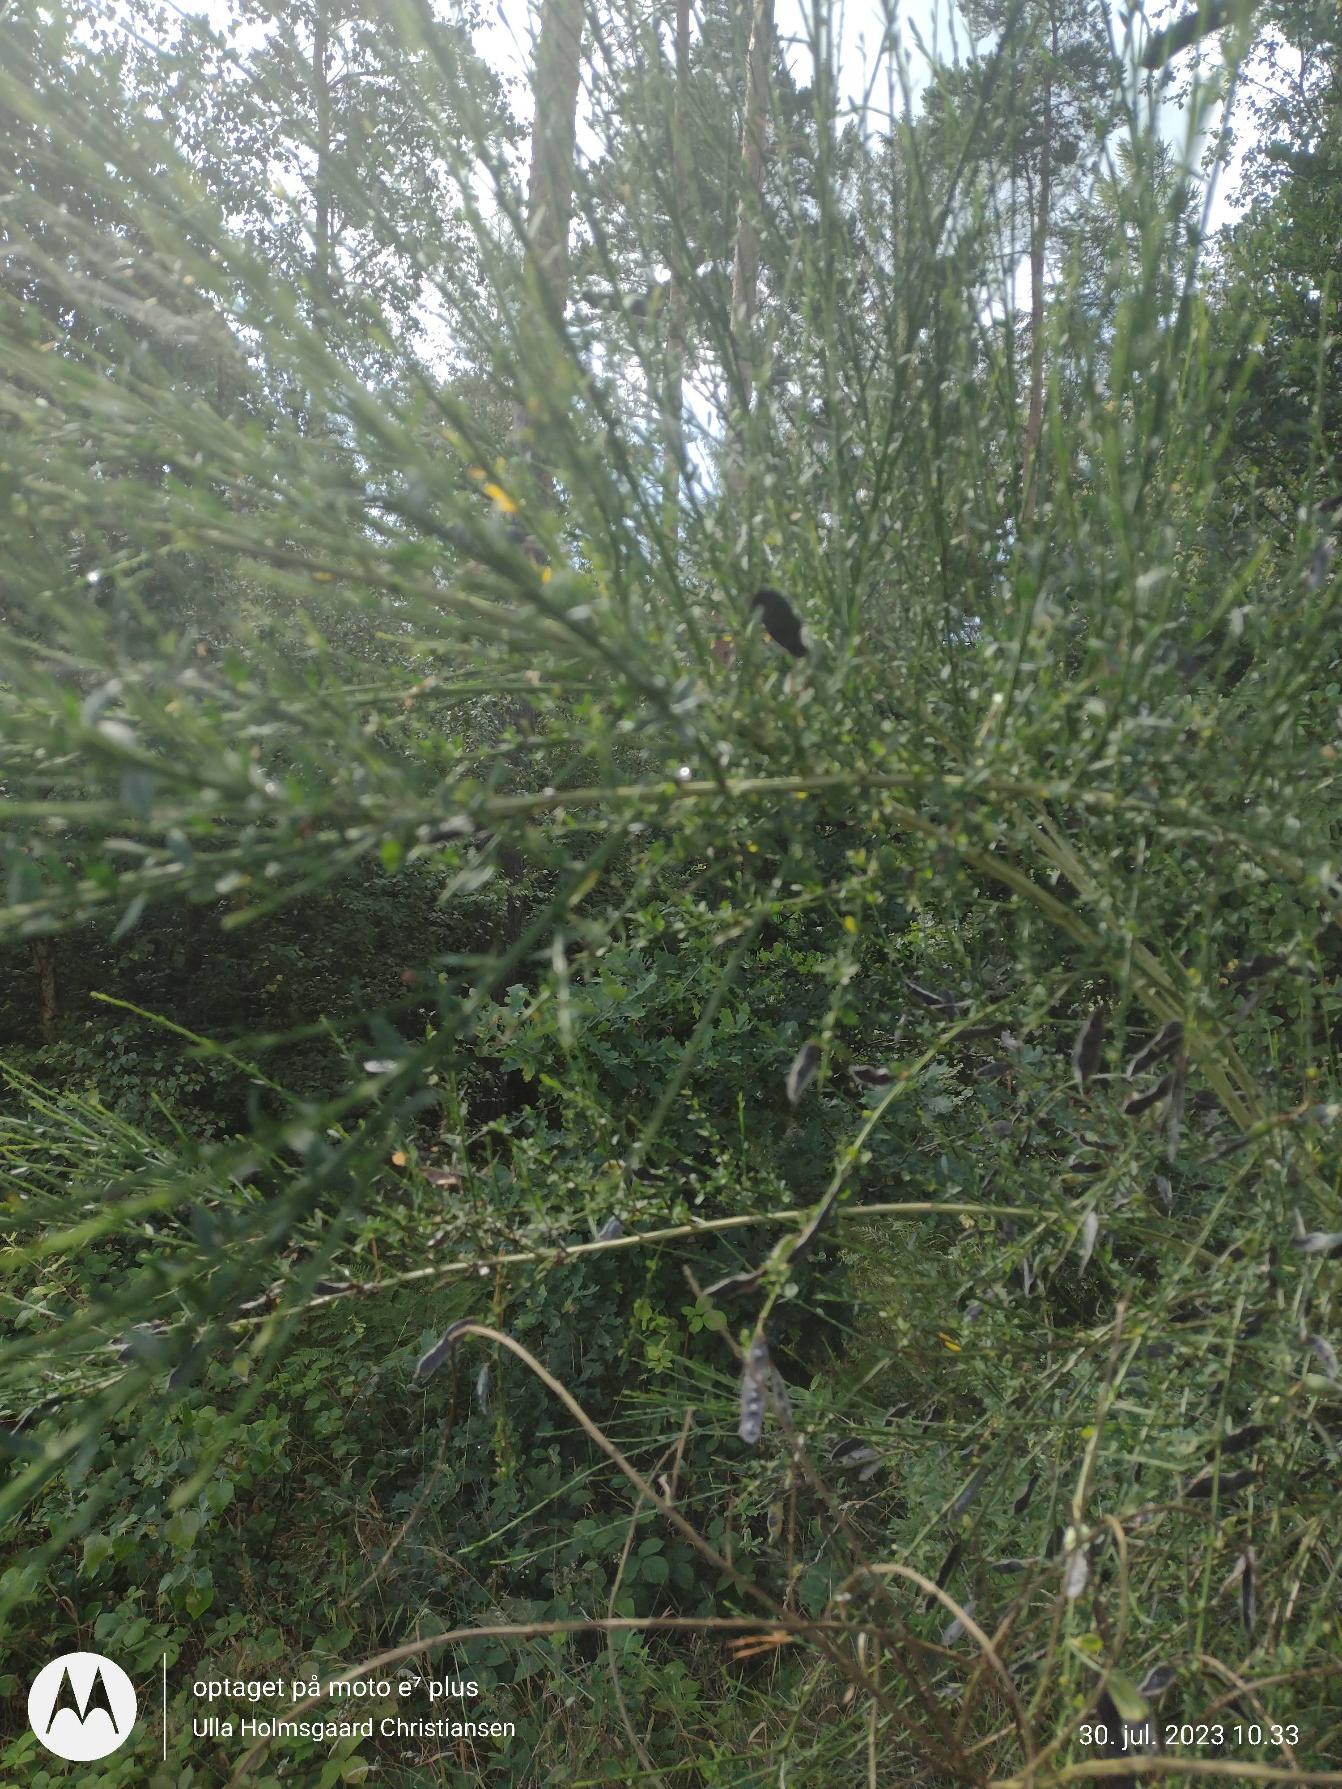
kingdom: Plantae
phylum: Tracheophyta
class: Magnoliopsida
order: Fabales
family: Fabaceae
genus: Cytisus
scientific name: Cytisus scoparius
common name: Almindelig gyvel
